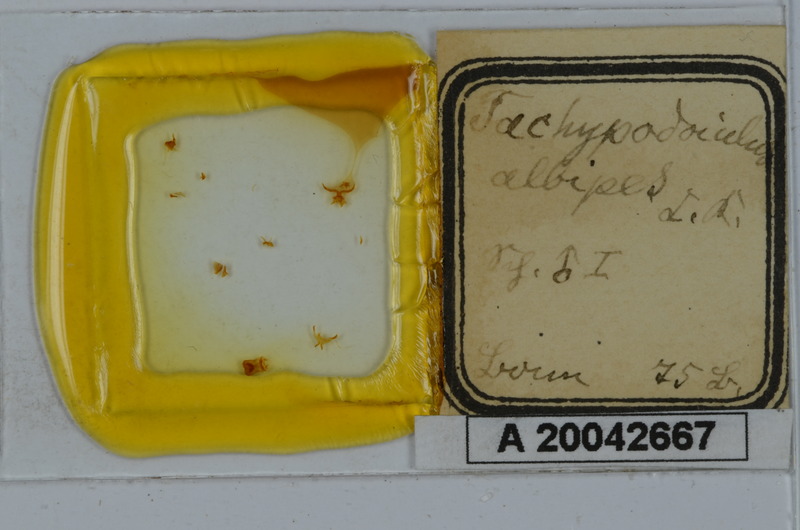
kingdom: Animalia
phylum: Arthropoda
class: Diplopoda
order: Julida
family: Julidae
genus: Tachypodoiulus
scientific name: Tachypodoiulus niger
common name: White-legged snake millipede
